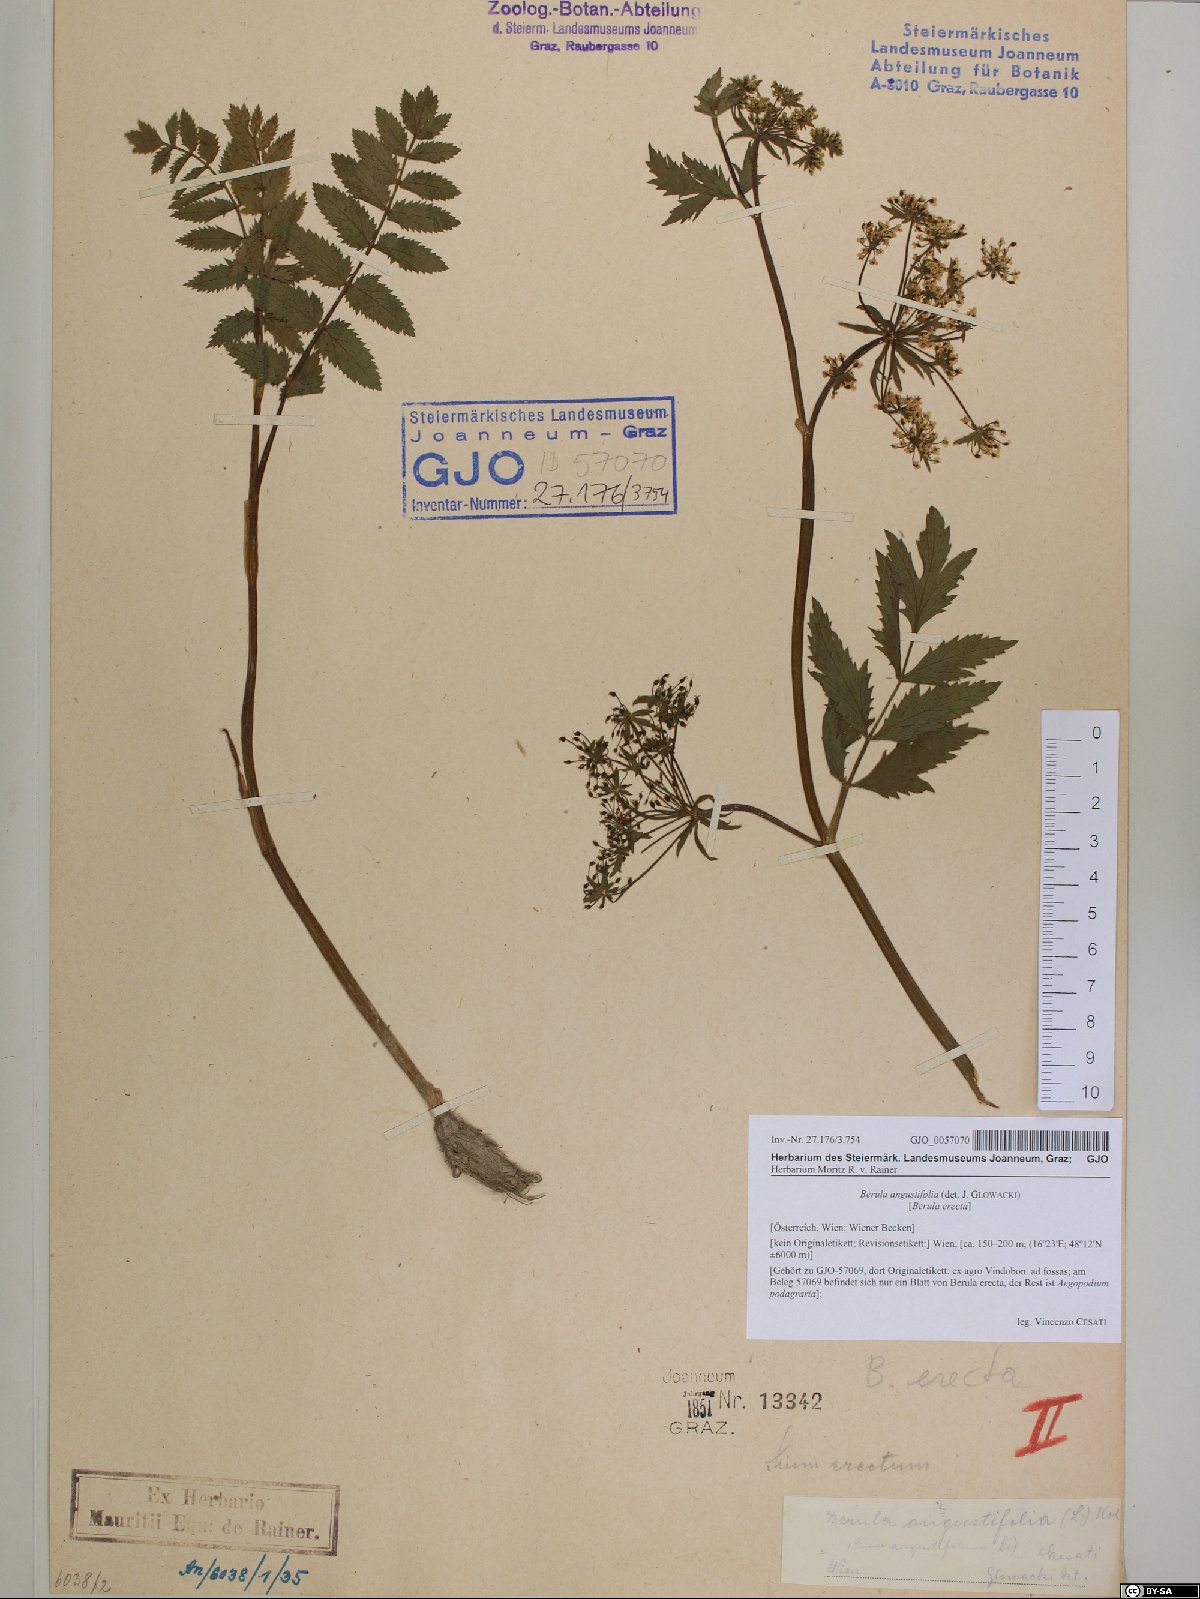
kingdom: Plantae
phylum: Tracheophyta
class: Magnoliopsida
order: Apiales
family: Apiaceae
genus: Berula
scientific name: Berula erecta
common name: Lesser water-parsnip
